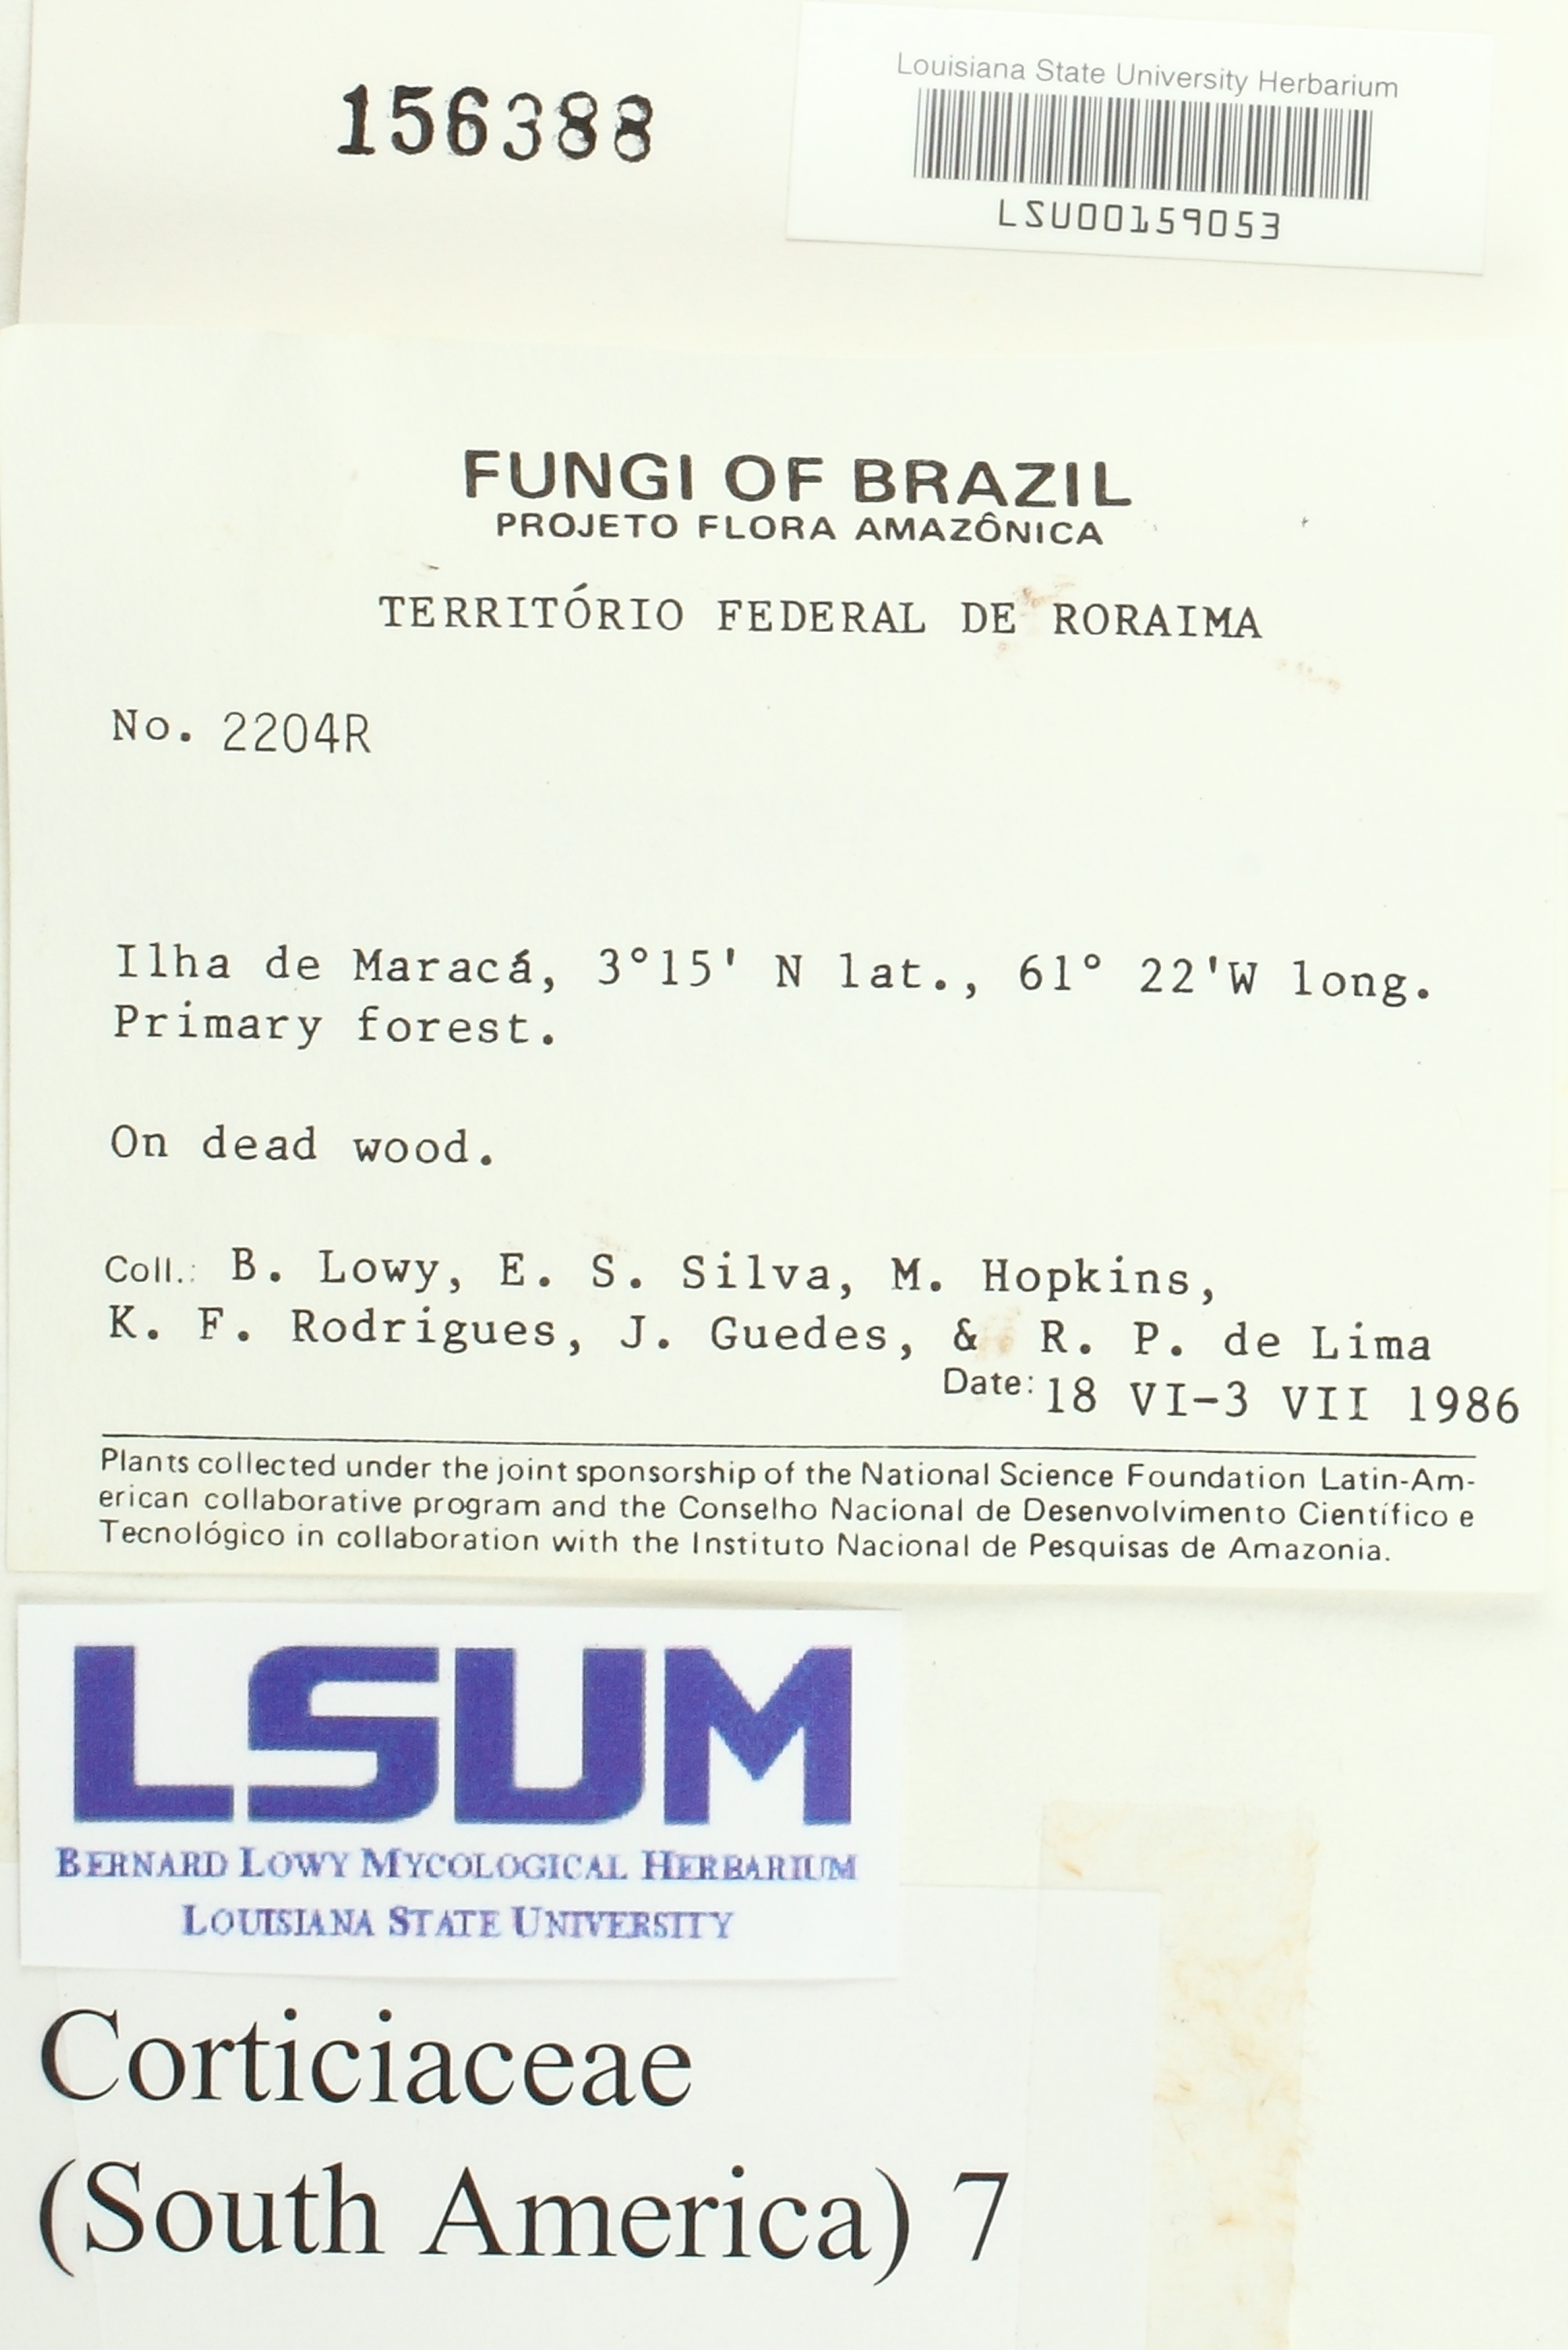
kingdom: Fungi
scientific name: Fungi
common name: Fungi
